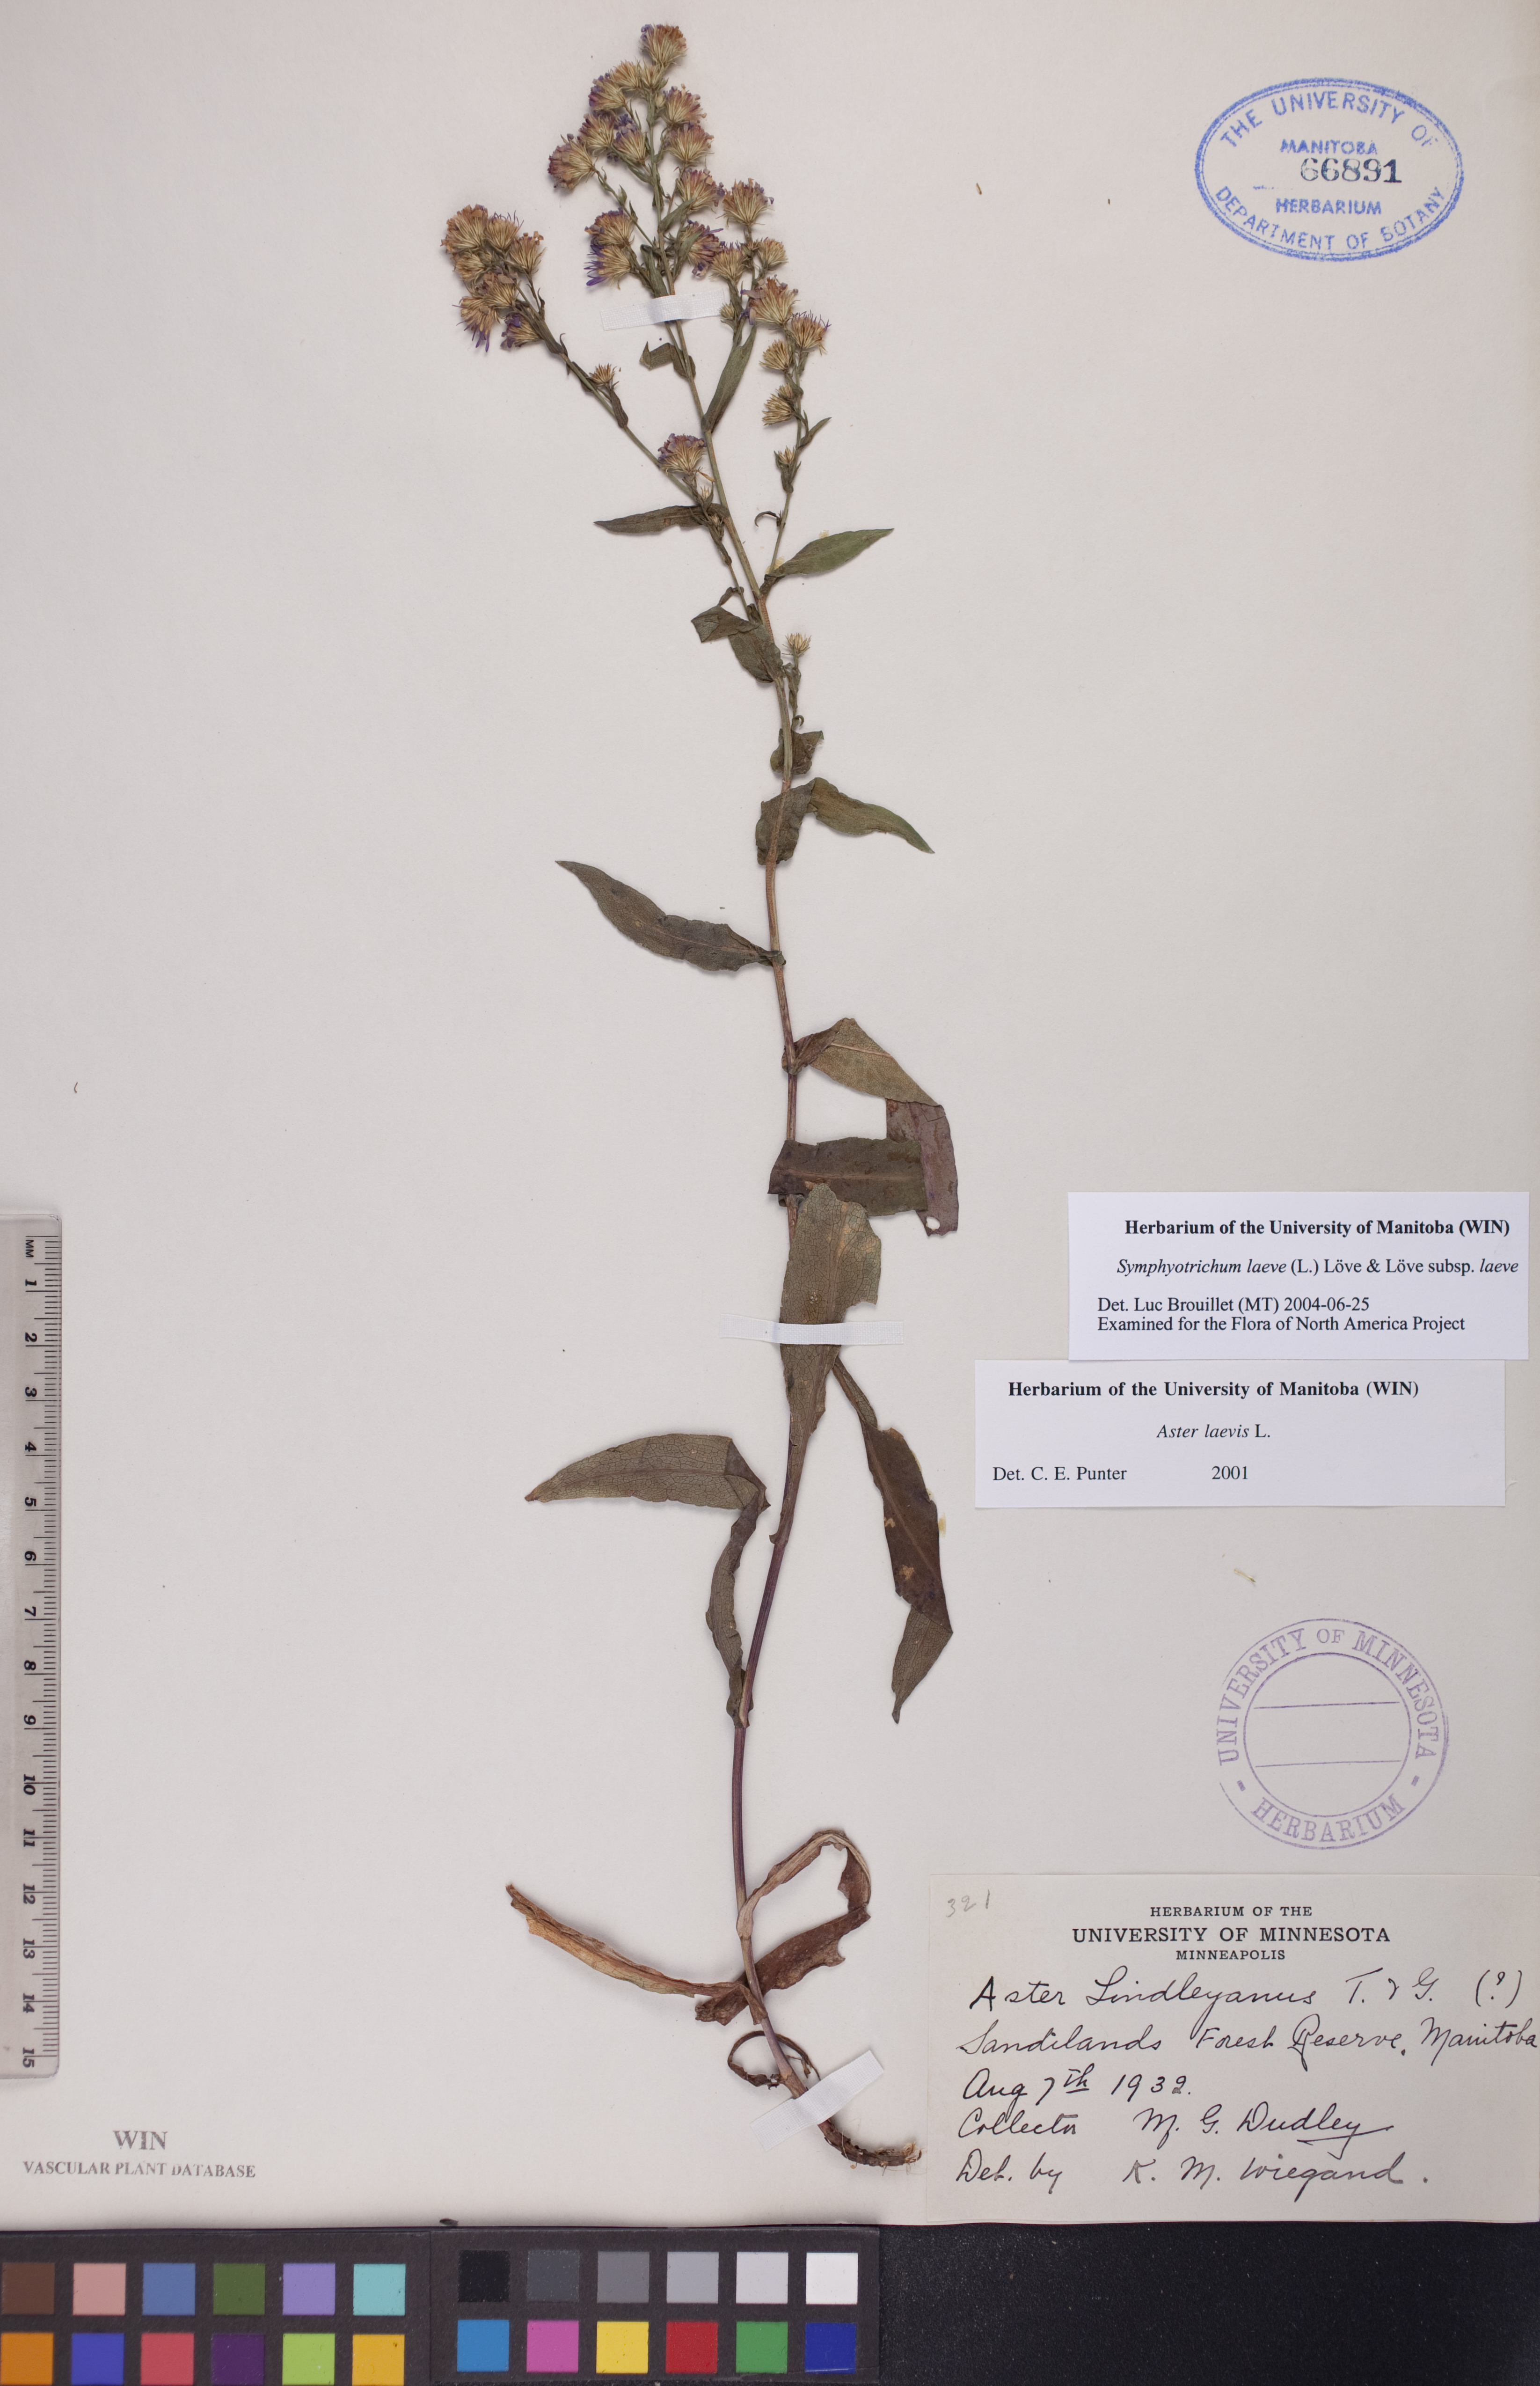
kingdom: Plantae
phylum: Tracheophyta
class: Magnoliopsida
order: Asterales
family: Asteraceae
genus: Symphyotrichum
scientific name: Symphyotrichum laeve
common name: Glaucous aster
